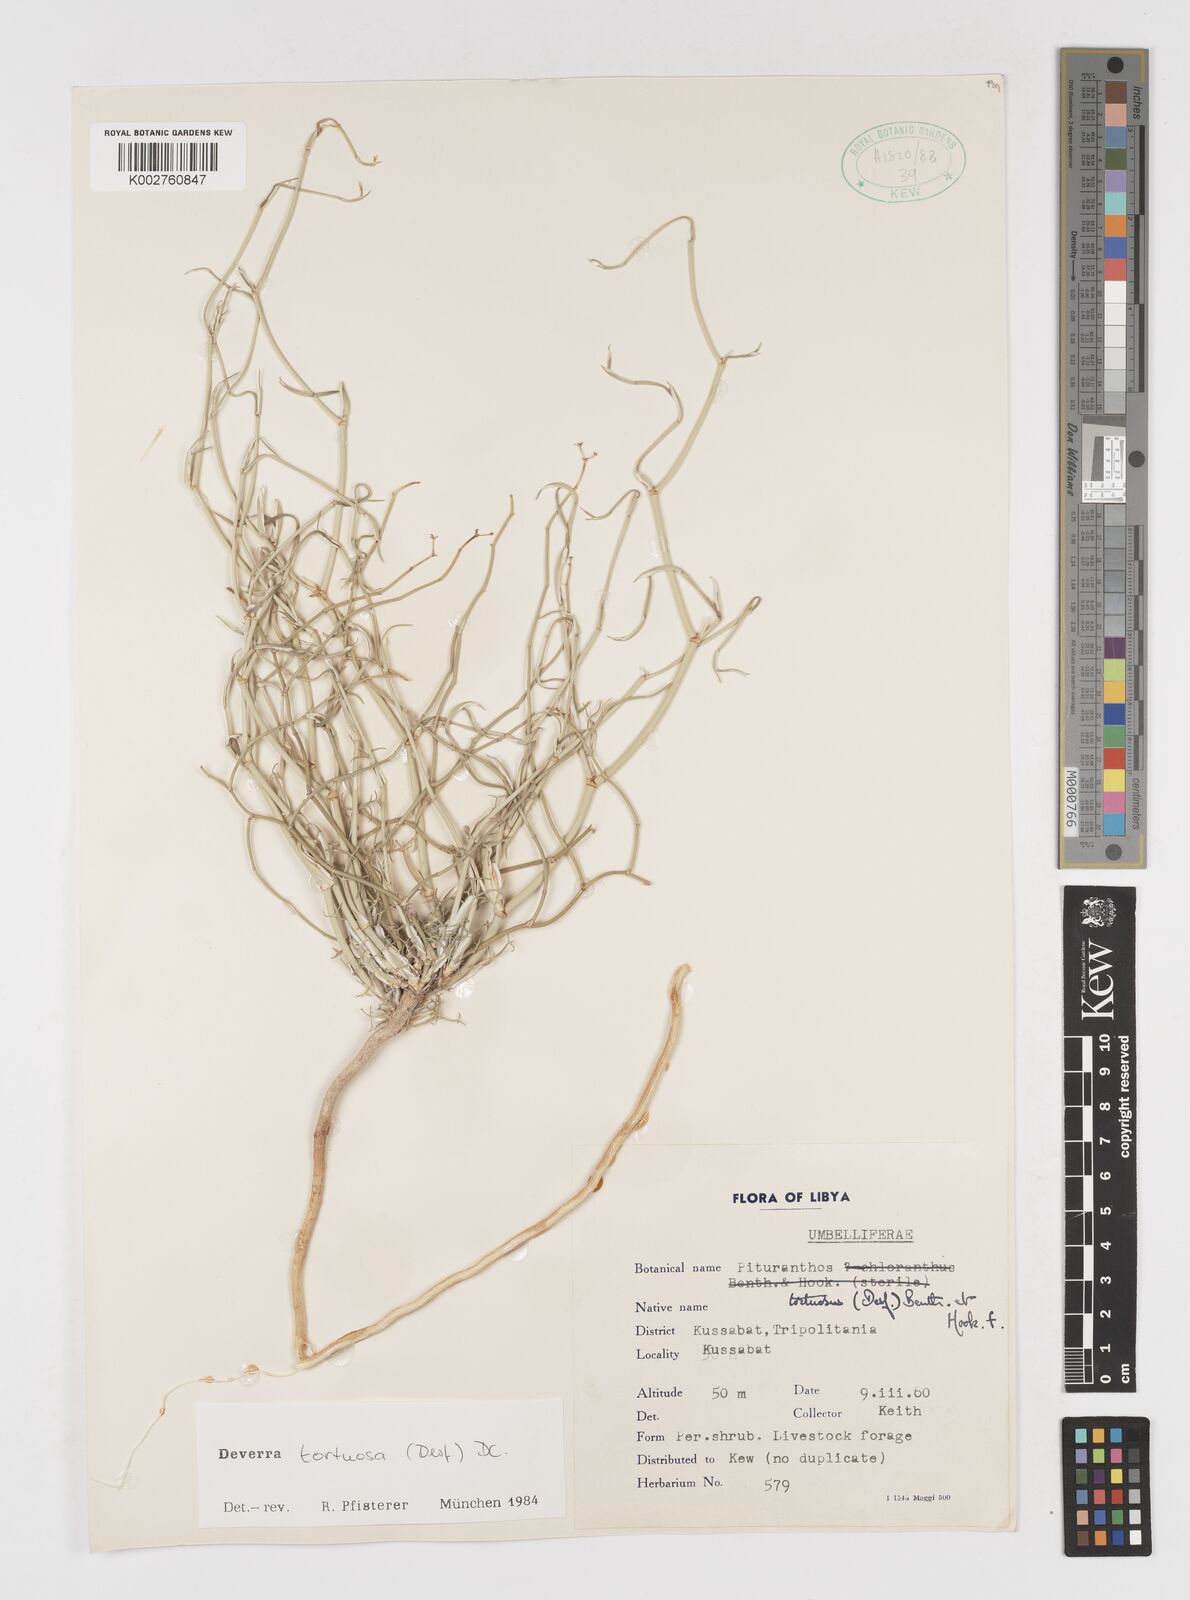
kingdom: Plantae
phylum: Tracheophyta
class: Magnoliopsida
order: Apiales
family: Apiaceae
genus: Deverra
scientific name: Deverra tortuosa
